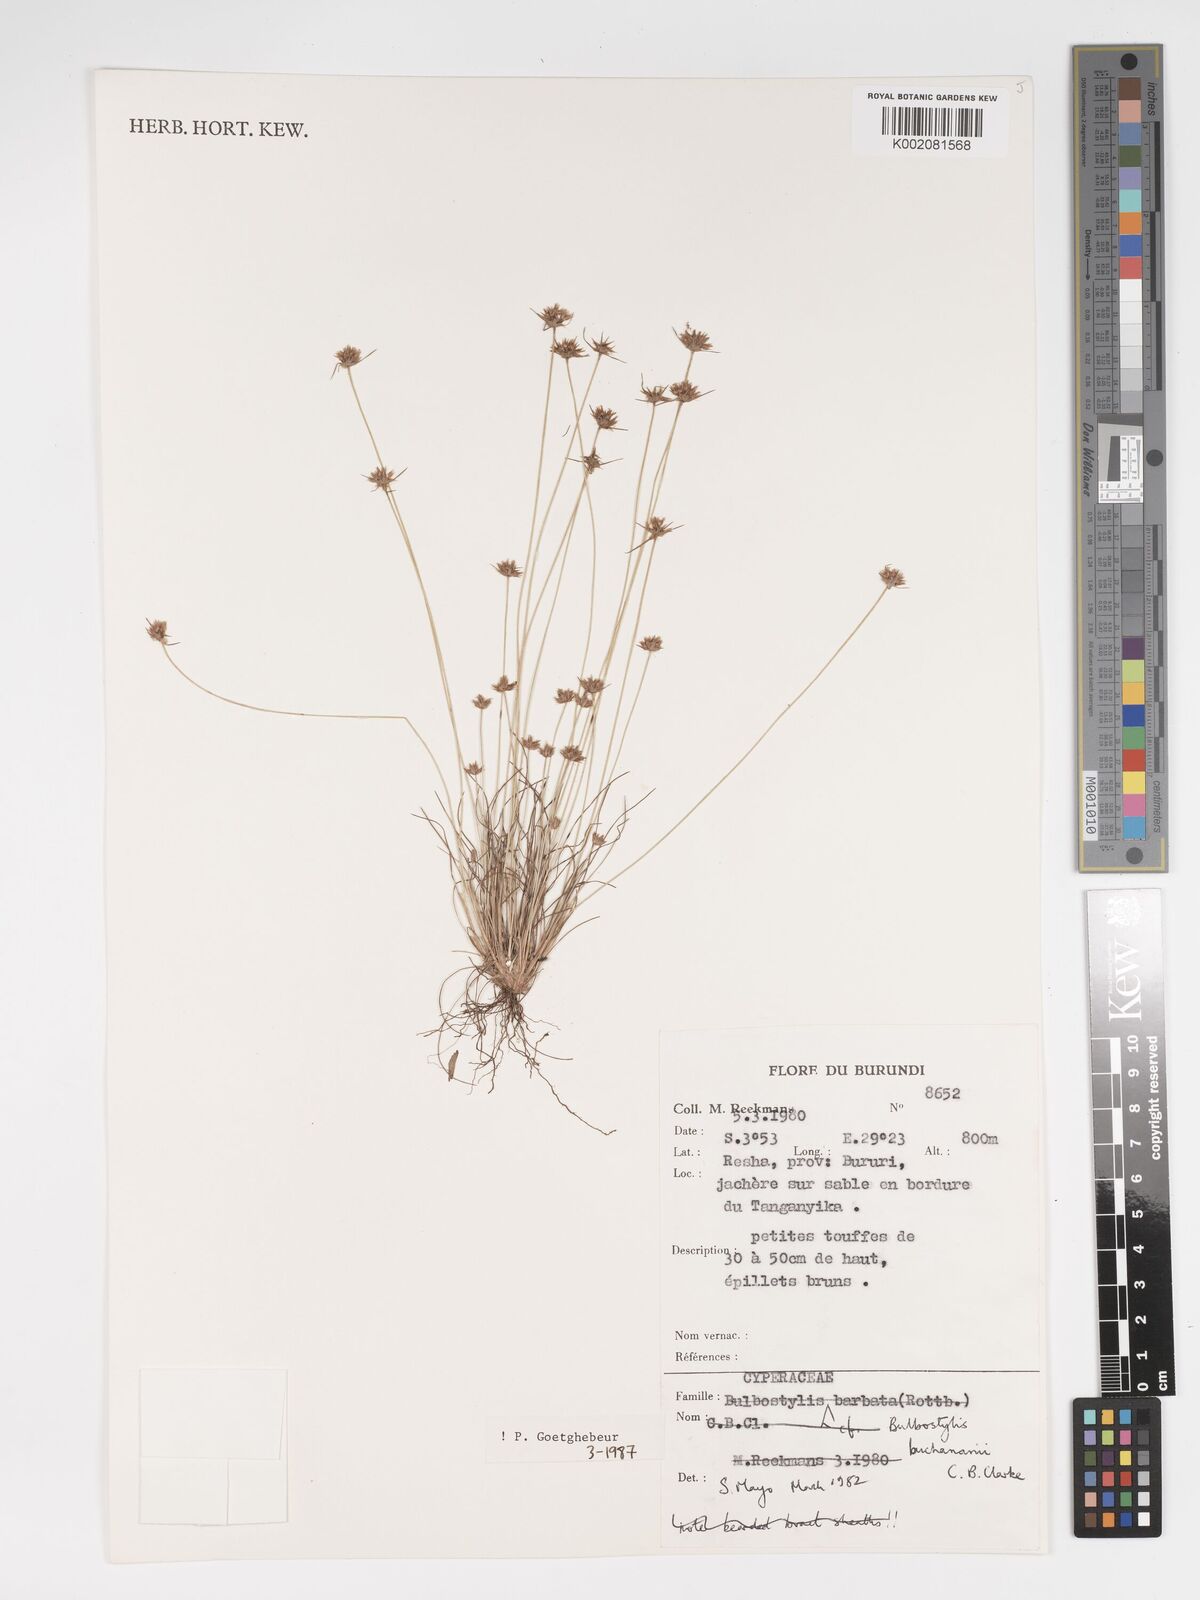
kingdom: Plantae
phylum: Tracheophyta
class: Liliopsida
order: Poales
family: Cyperaceae
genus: Bulbostylis
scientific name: Bulbostylis buchananii
